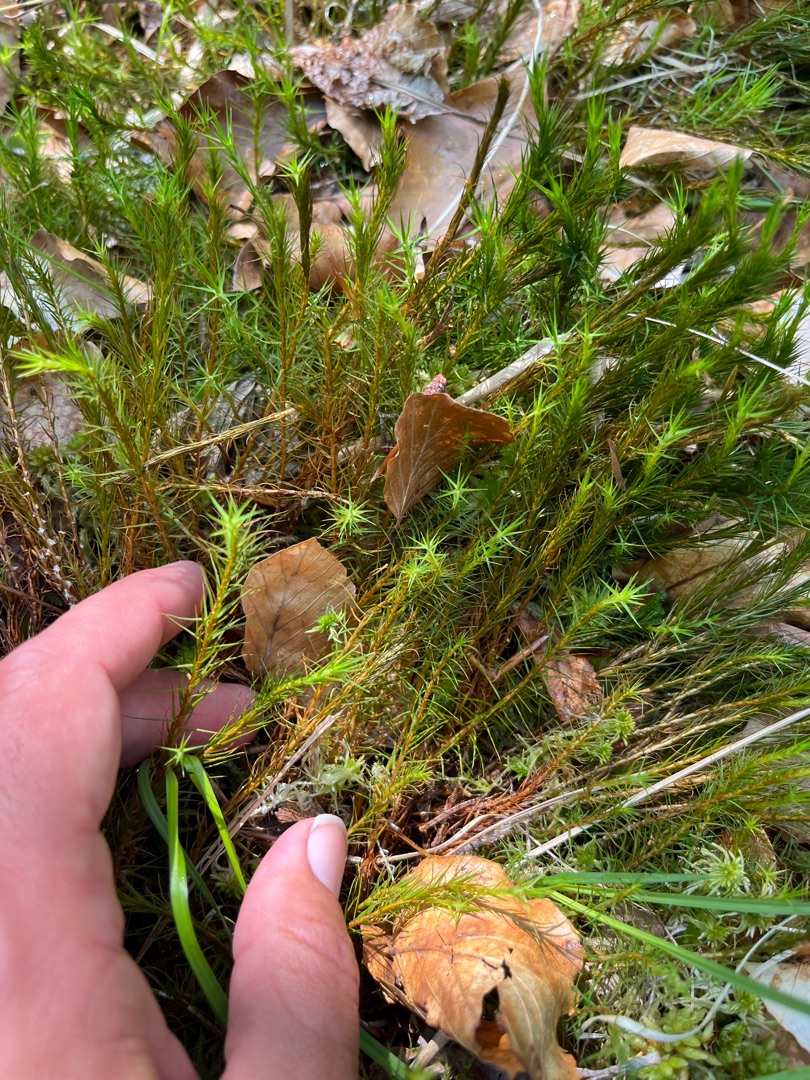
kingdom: Plantae
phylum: Bryophyta
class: Polytrichopsida
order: Polytrichales
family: Polytrichaceae
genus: Polytrichum
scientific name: Polytrichum commune
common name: Almindelig jomfruhår
